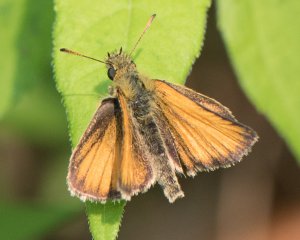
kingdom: Animalia
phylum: Arthropoda
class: Insecta
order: Lepidoptera
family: Hesperiidae
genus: Thymelicus
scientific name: Thymelicus lineola
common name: European Skipper
